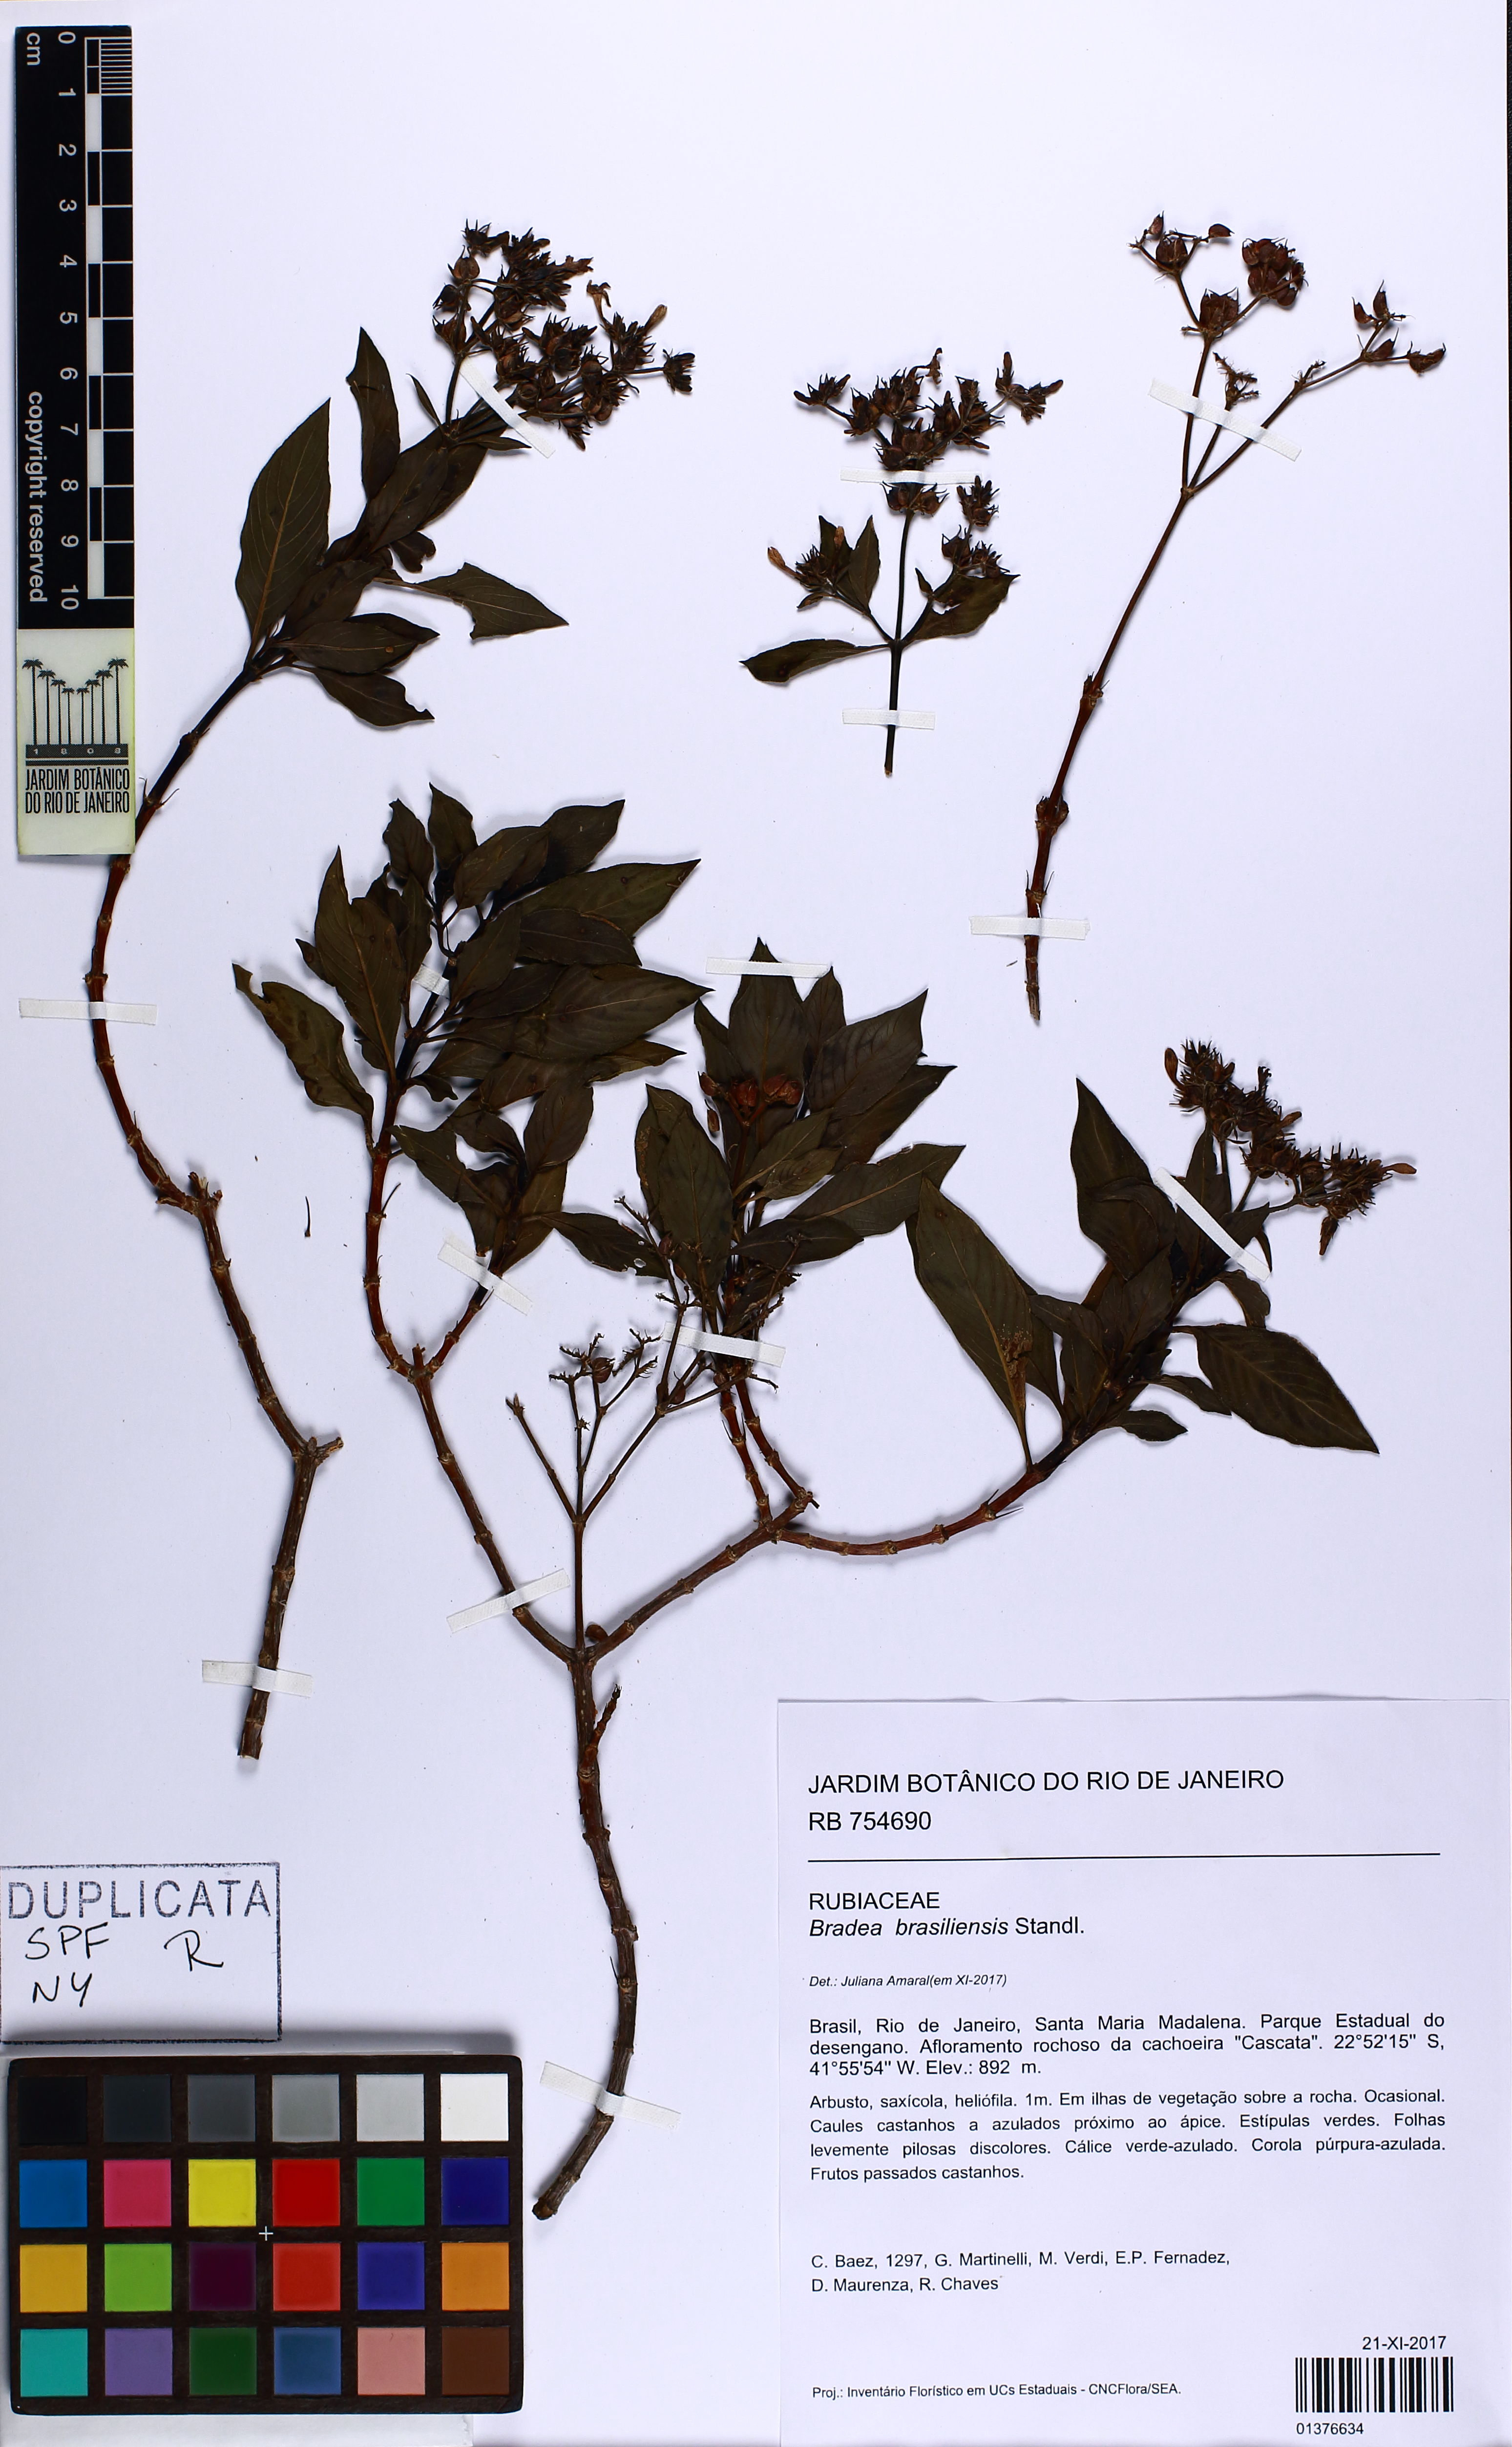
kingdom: Plantae
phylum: Tracheophyta
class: Magnoliopsida
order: Gentianales
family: Rubiaceae
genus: Bradea
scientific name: Bradea brasiliensis
